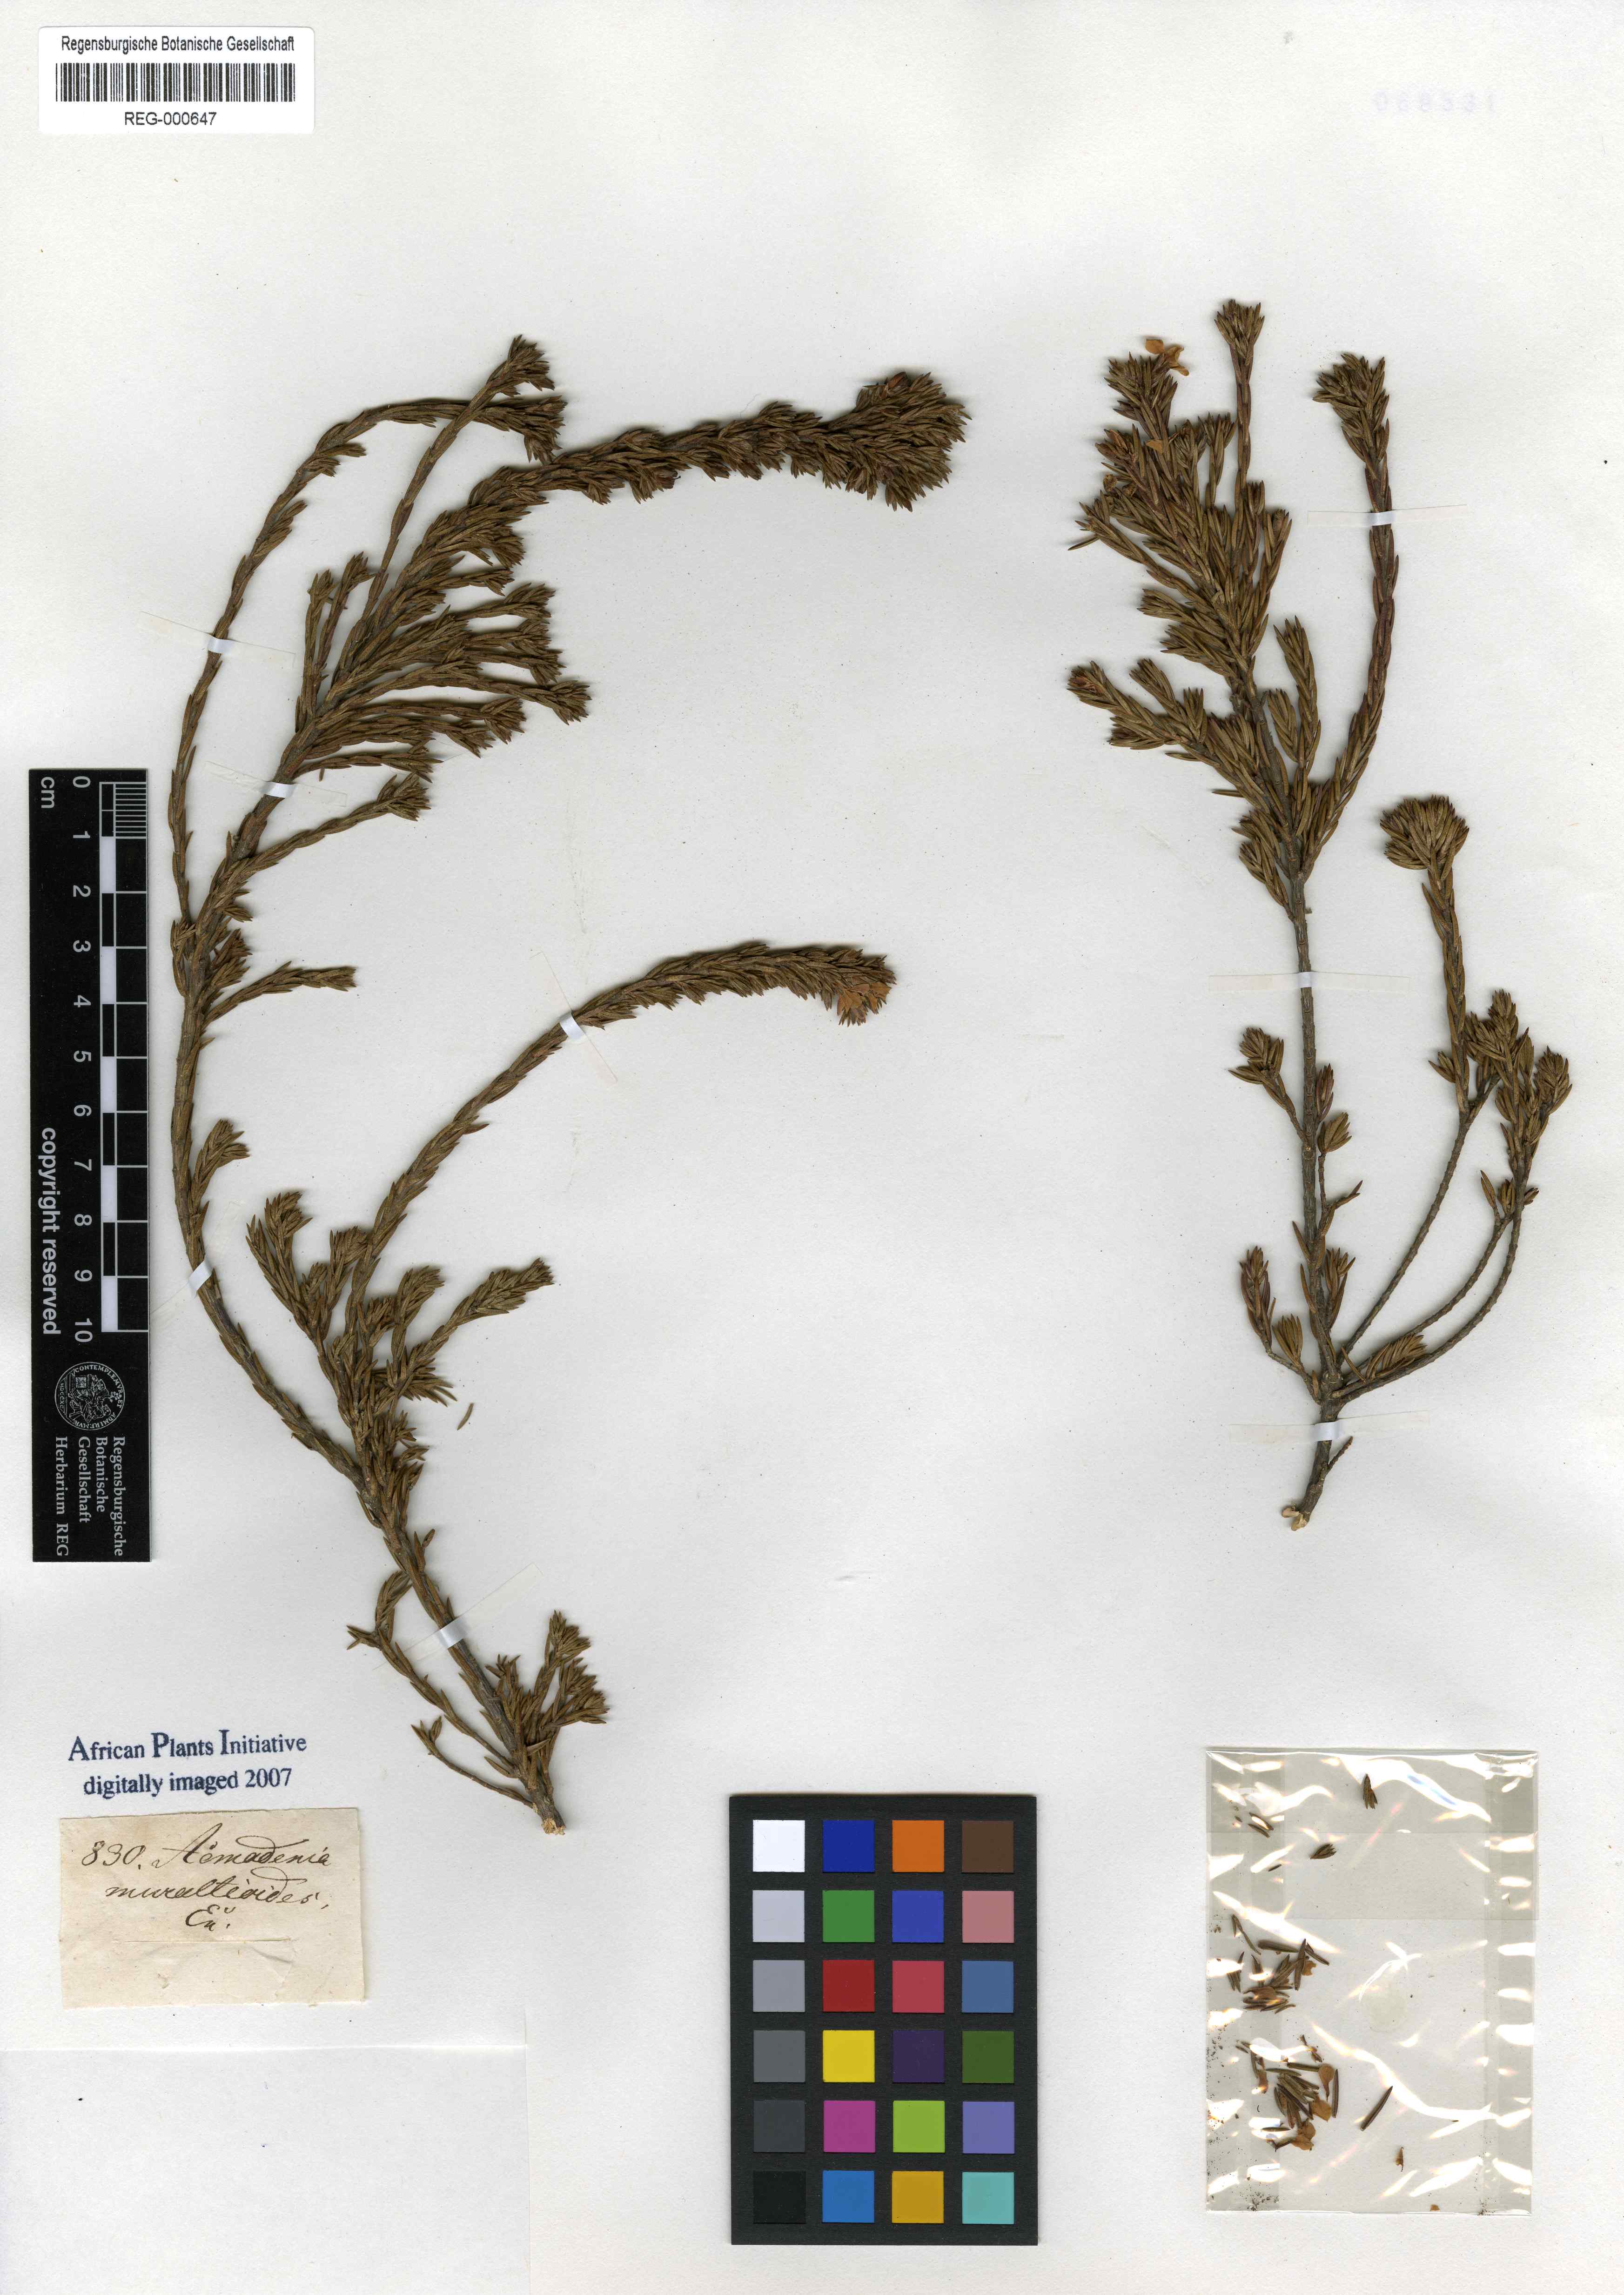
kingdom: Plantae
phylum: Tracheophyta
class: Magnoliopsida
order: Sapindales
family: Rutaceae
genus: Acmadenia
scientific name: Acmadenia obtusata
